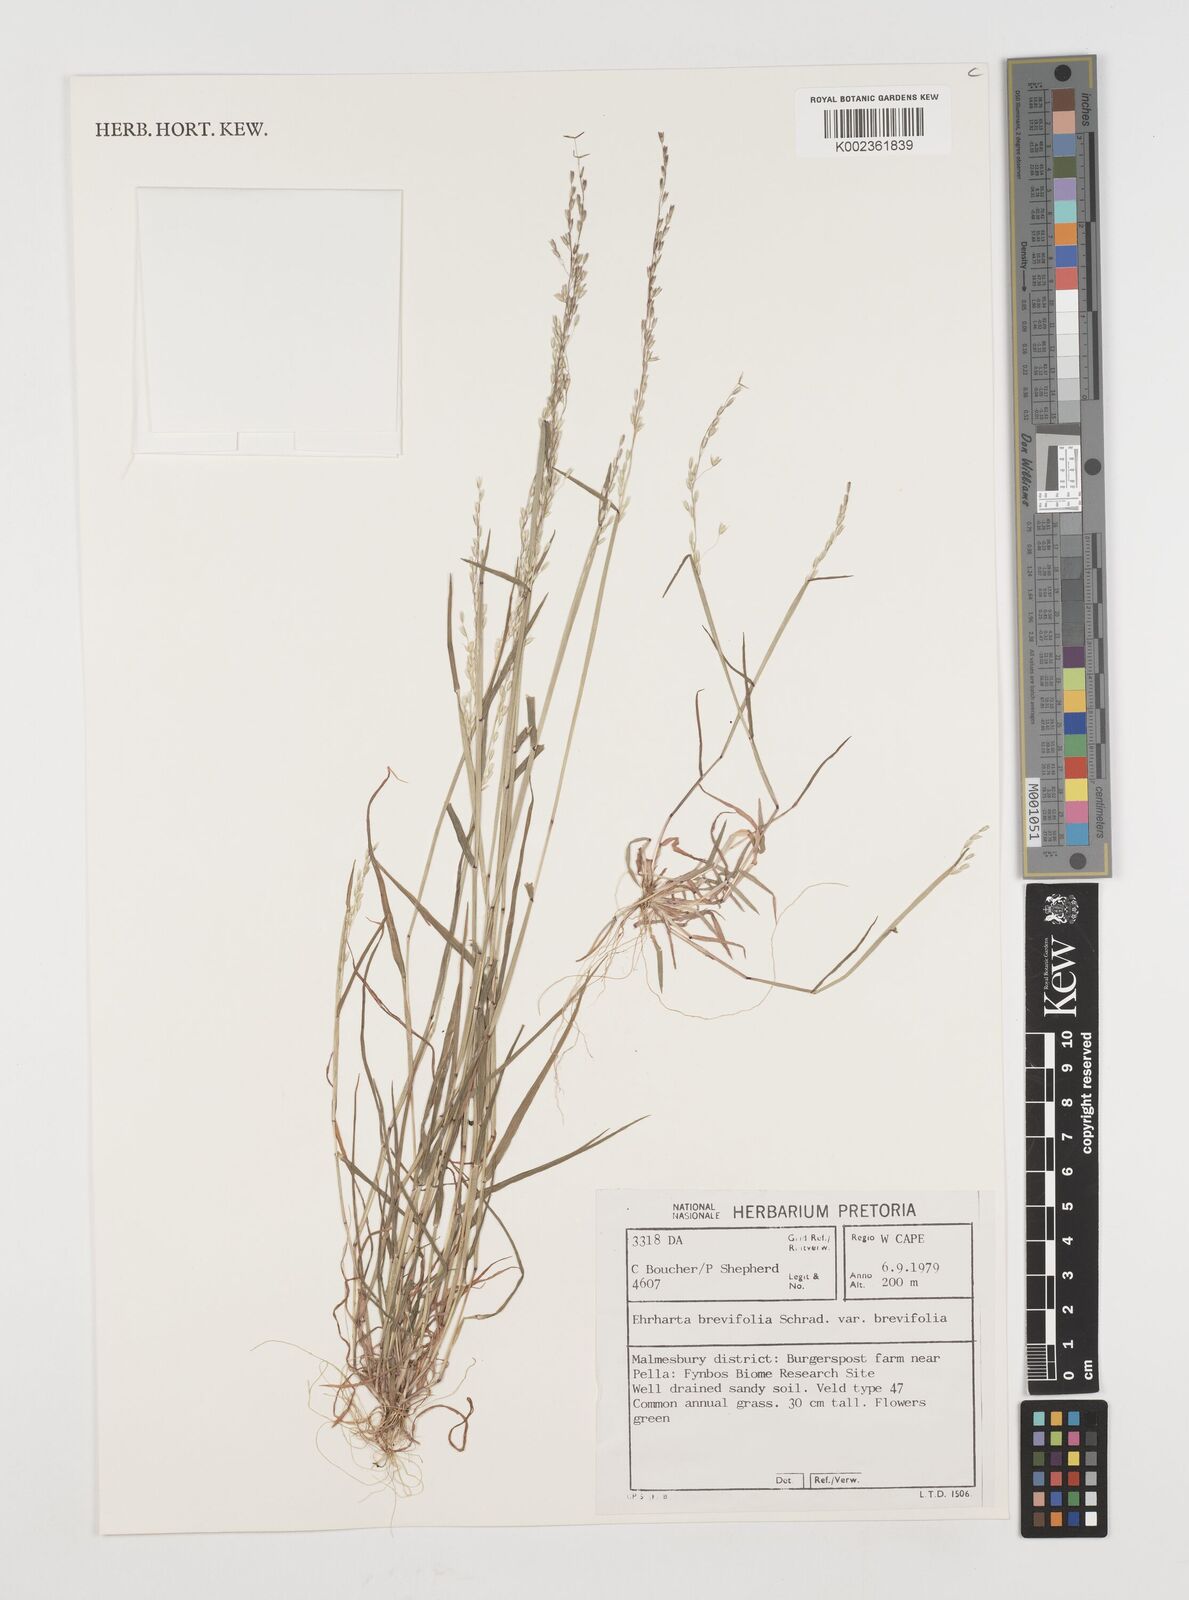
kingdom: Plantae
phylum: Tracheophyta
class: Liliopsida
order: Poales
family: Poaceae
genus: Ehrharta
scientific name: Ehrharta brevifolia
